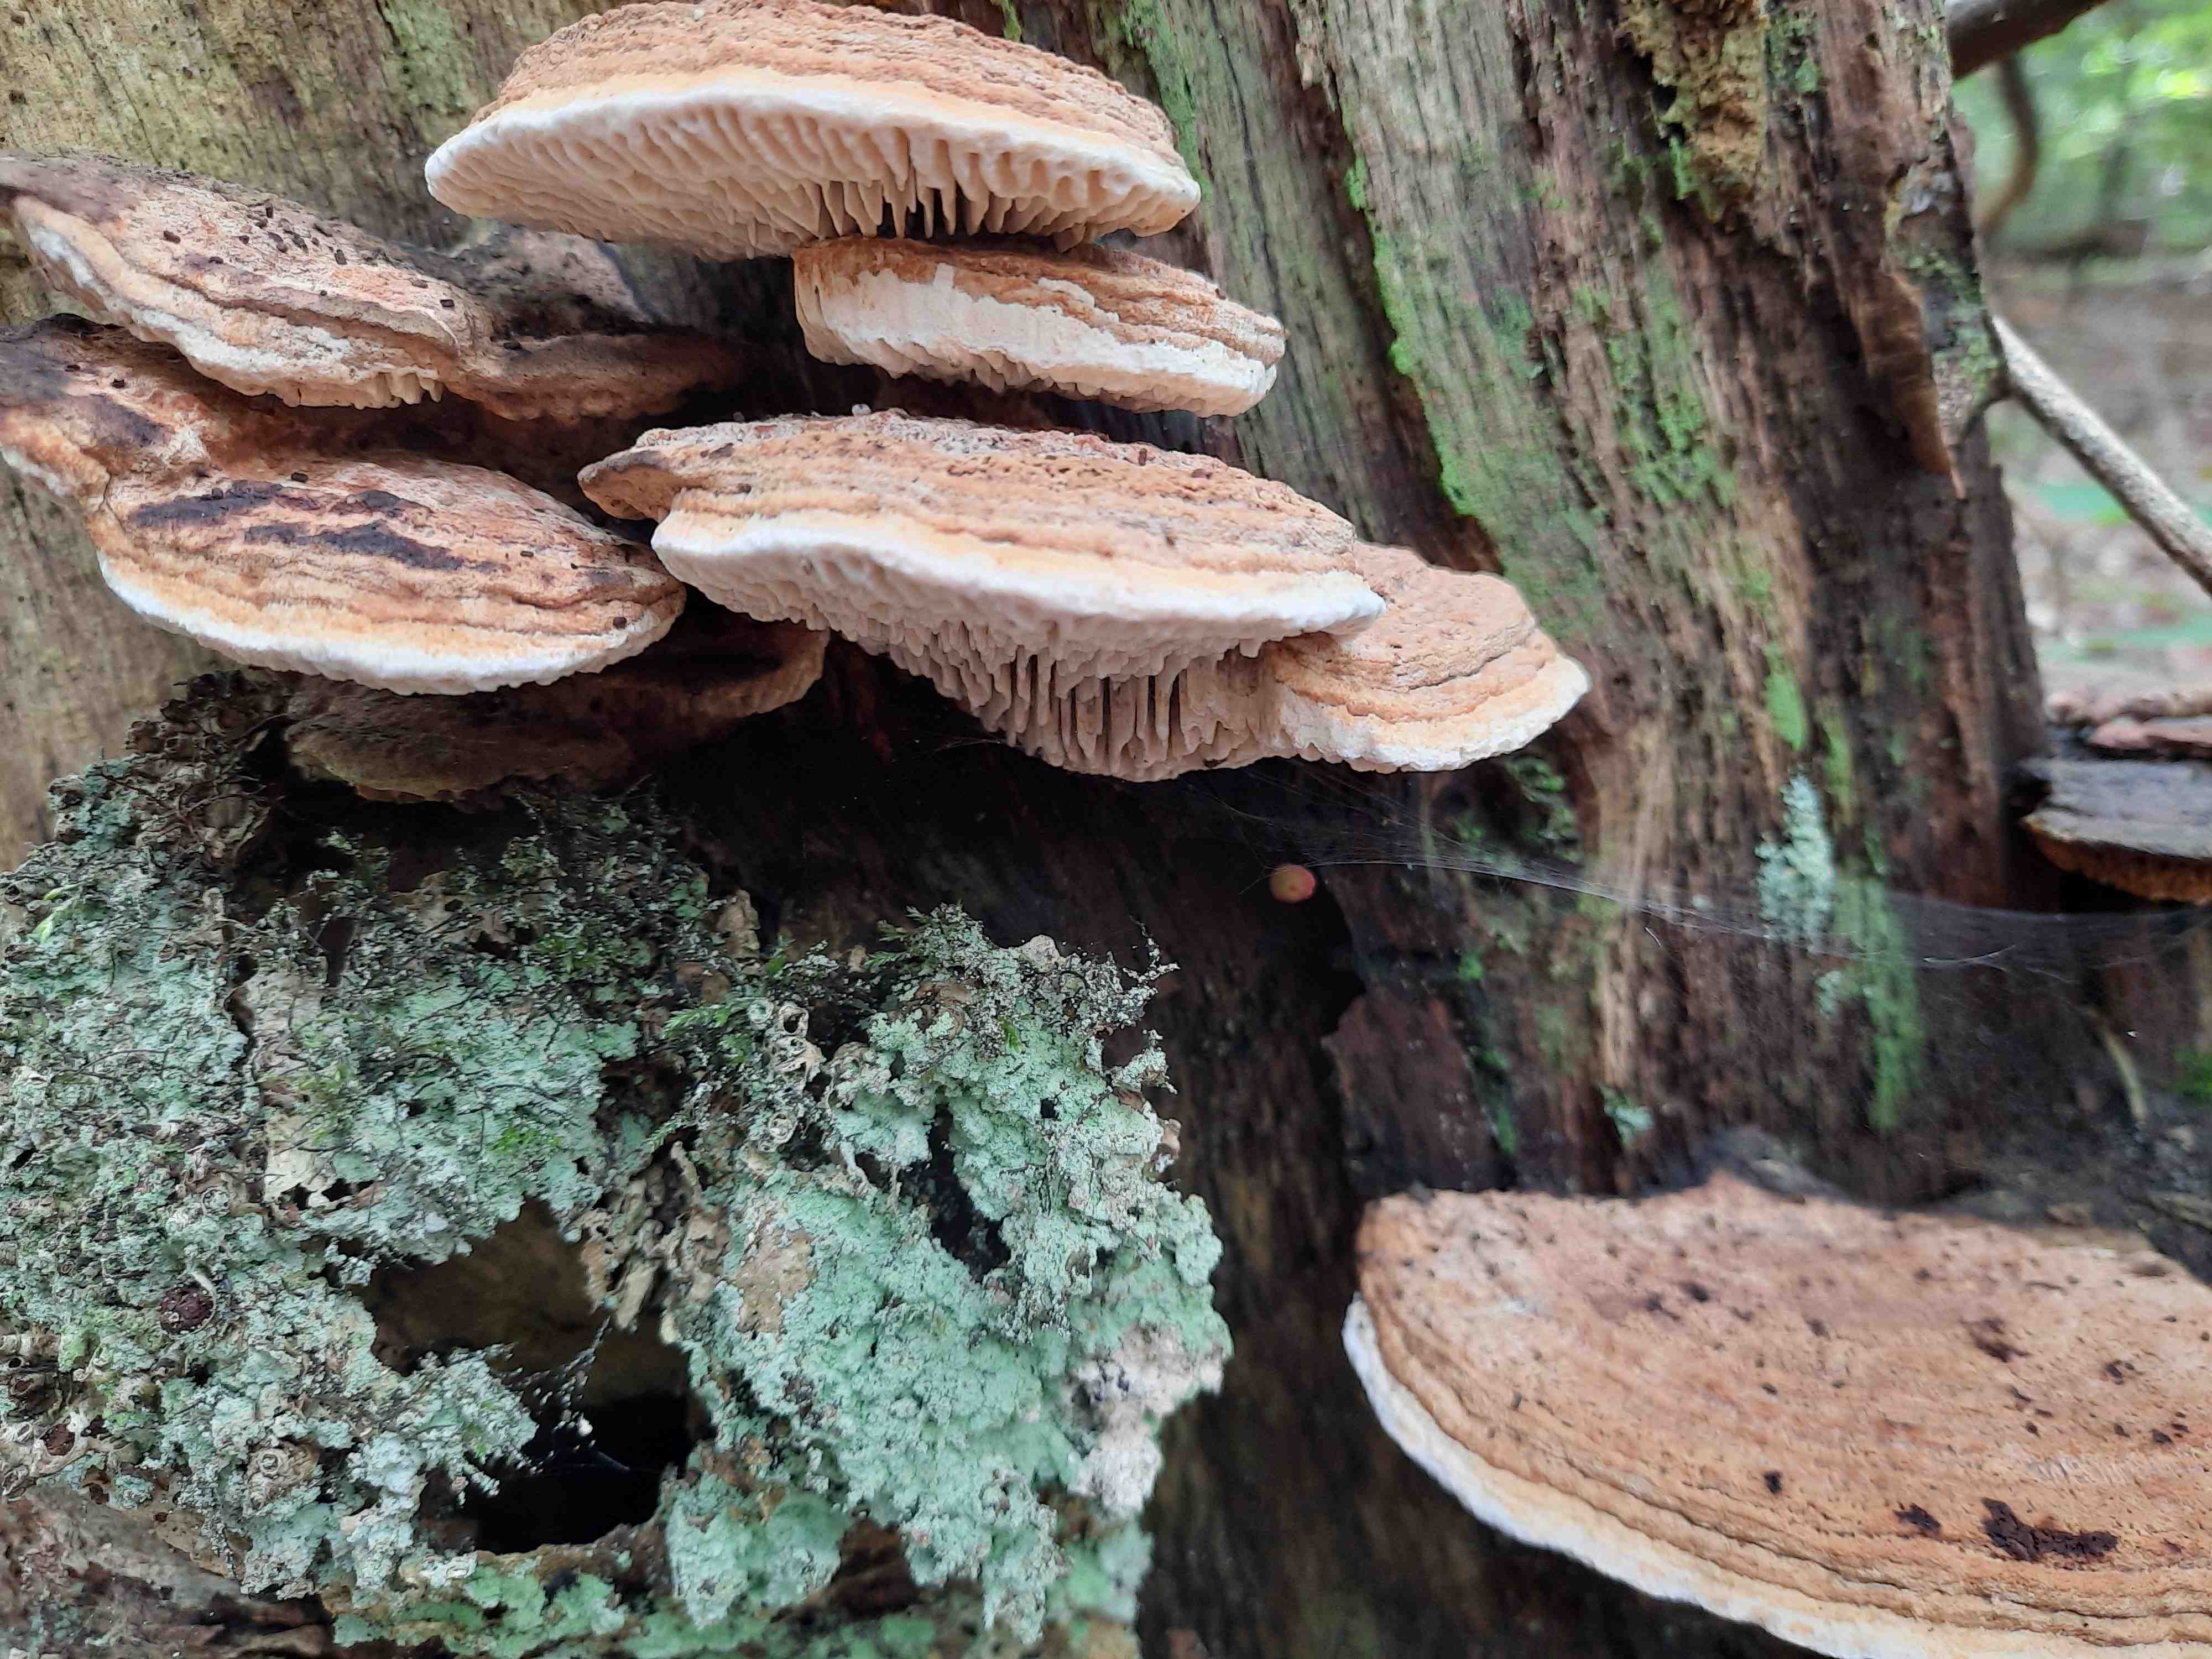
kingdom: Fungi
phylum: Basidiomycota
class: Agaricomycetes
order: Polyporales
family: Fomitopsidaceae
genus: Daedalea
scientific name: Daedalea quercina
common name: ege-labyrintsvamp
